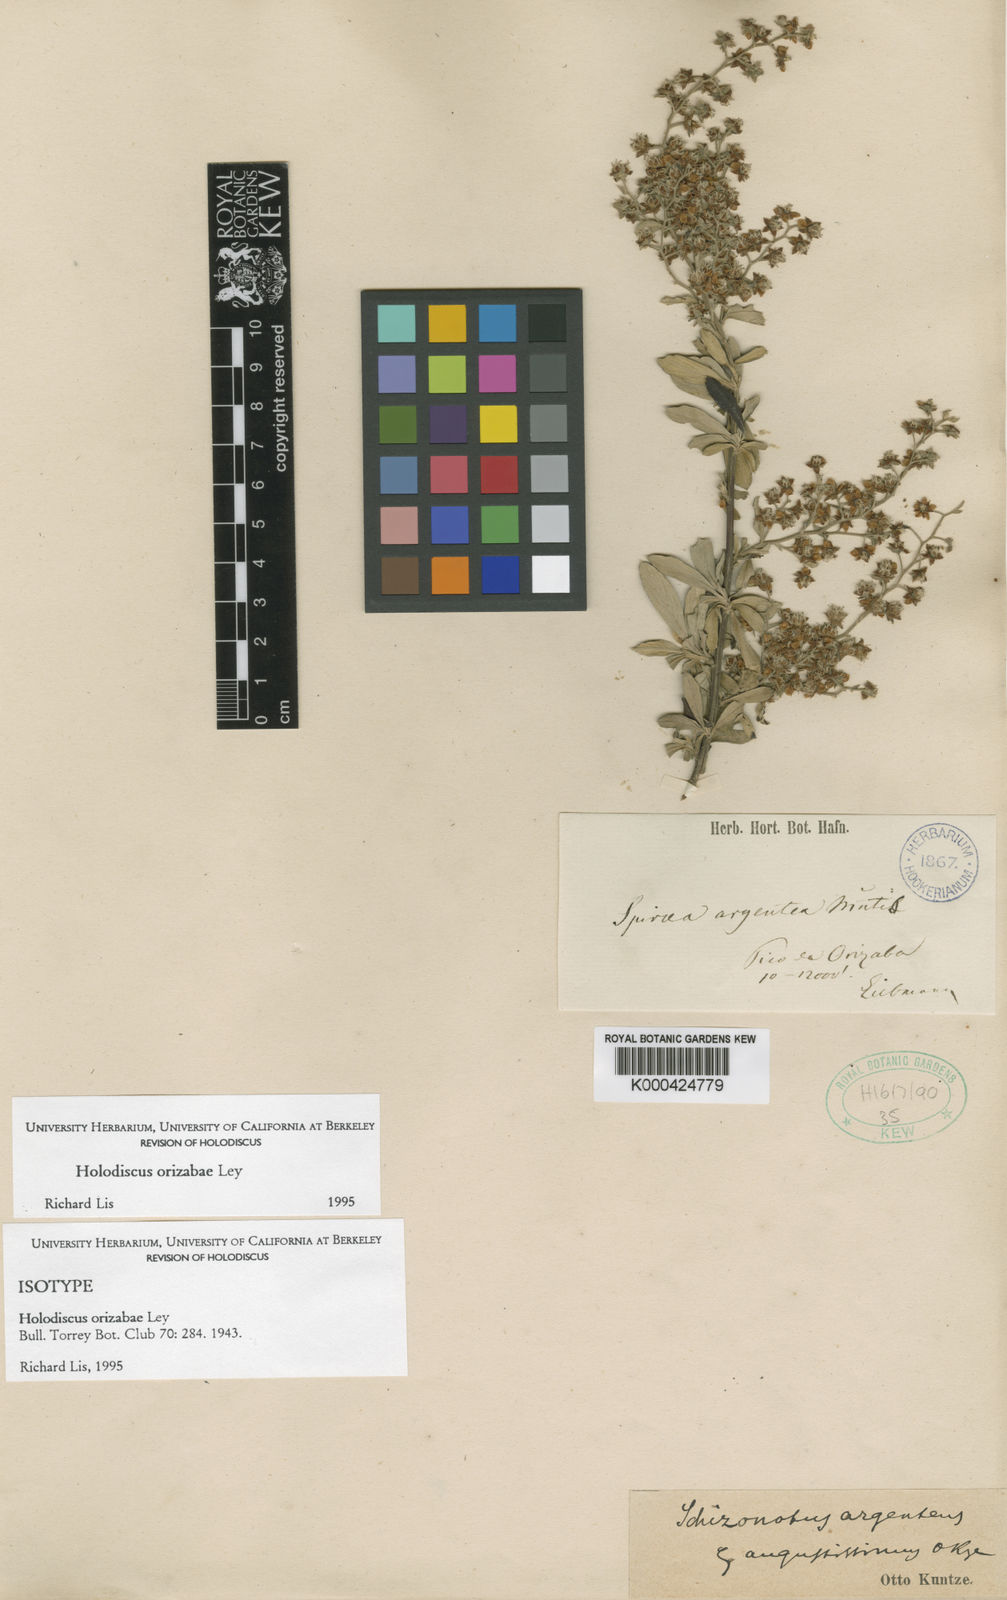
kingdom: Plantae
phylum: Tracheophyta
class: Magnoliopsida
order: Rosales
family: Rosaceae
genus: Holodiscus
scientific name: Holodiscus orizabae
